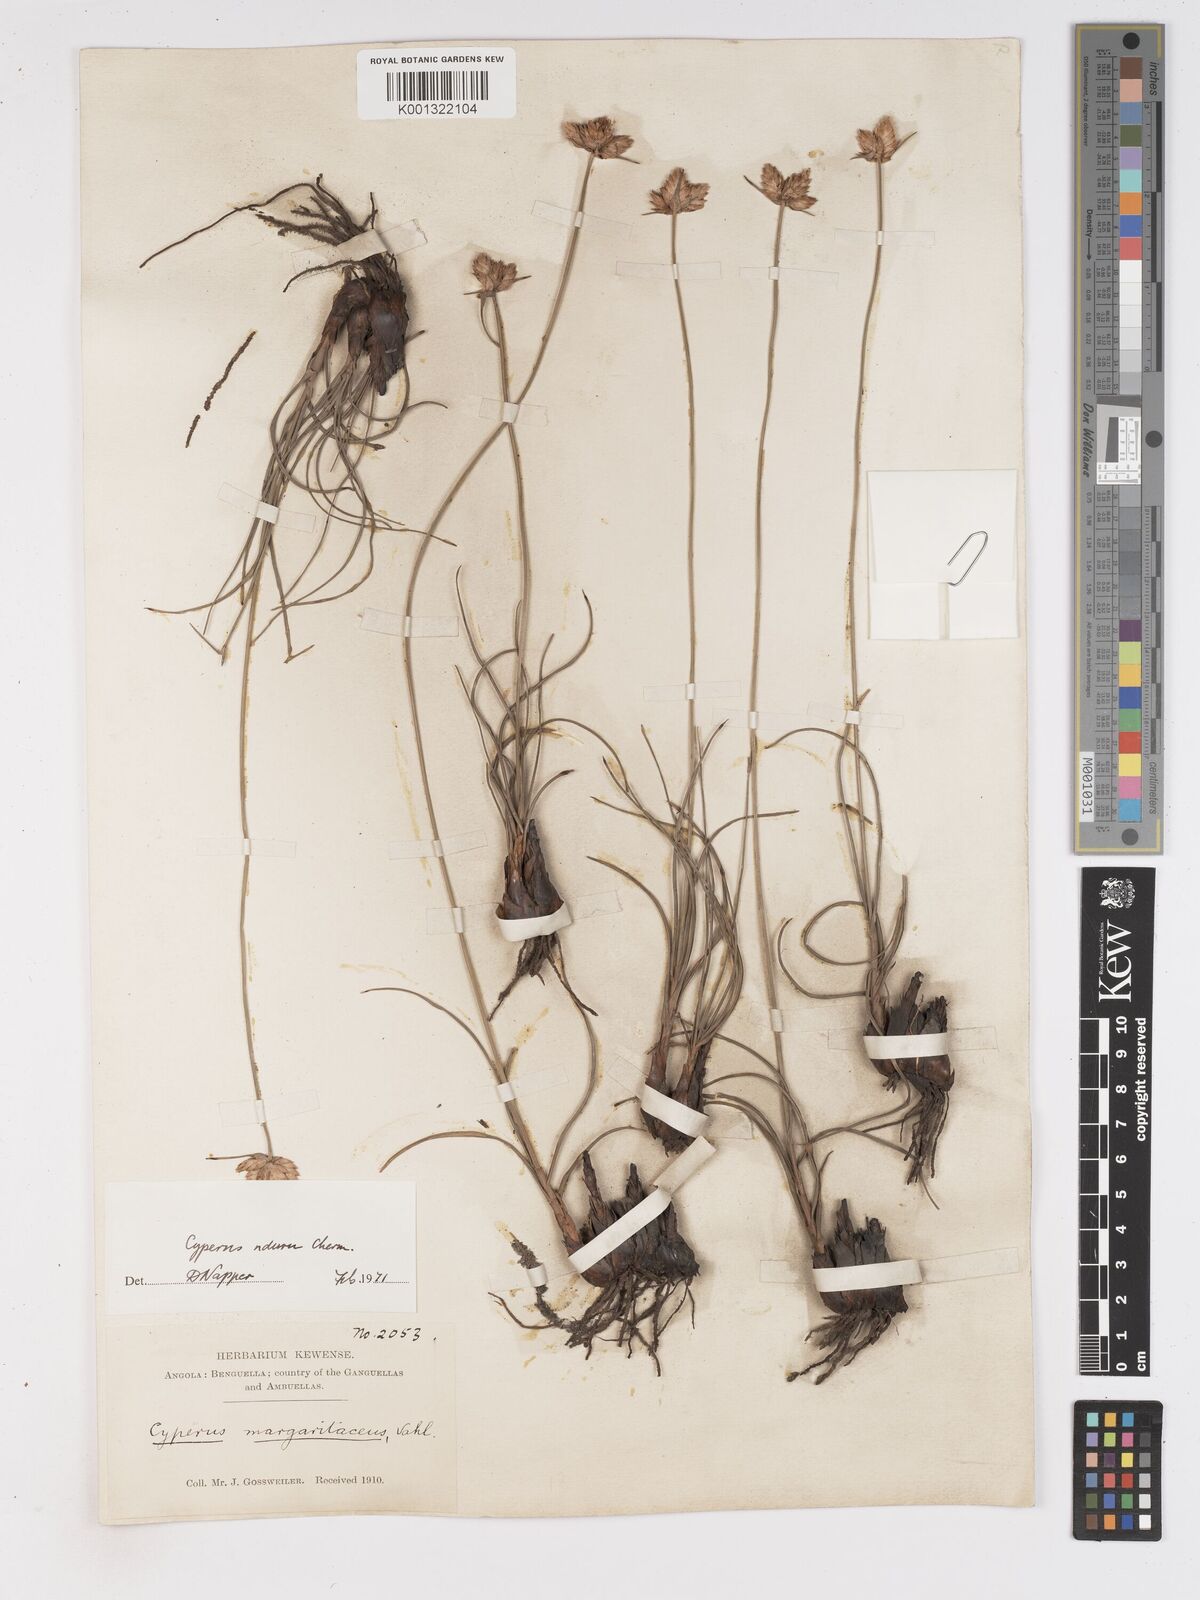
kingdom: Plantae
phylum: Tracheophyta
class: Liliopsida
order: Poales
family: Cyperaceae
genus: Cyperus
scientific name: Cyperus nduru
